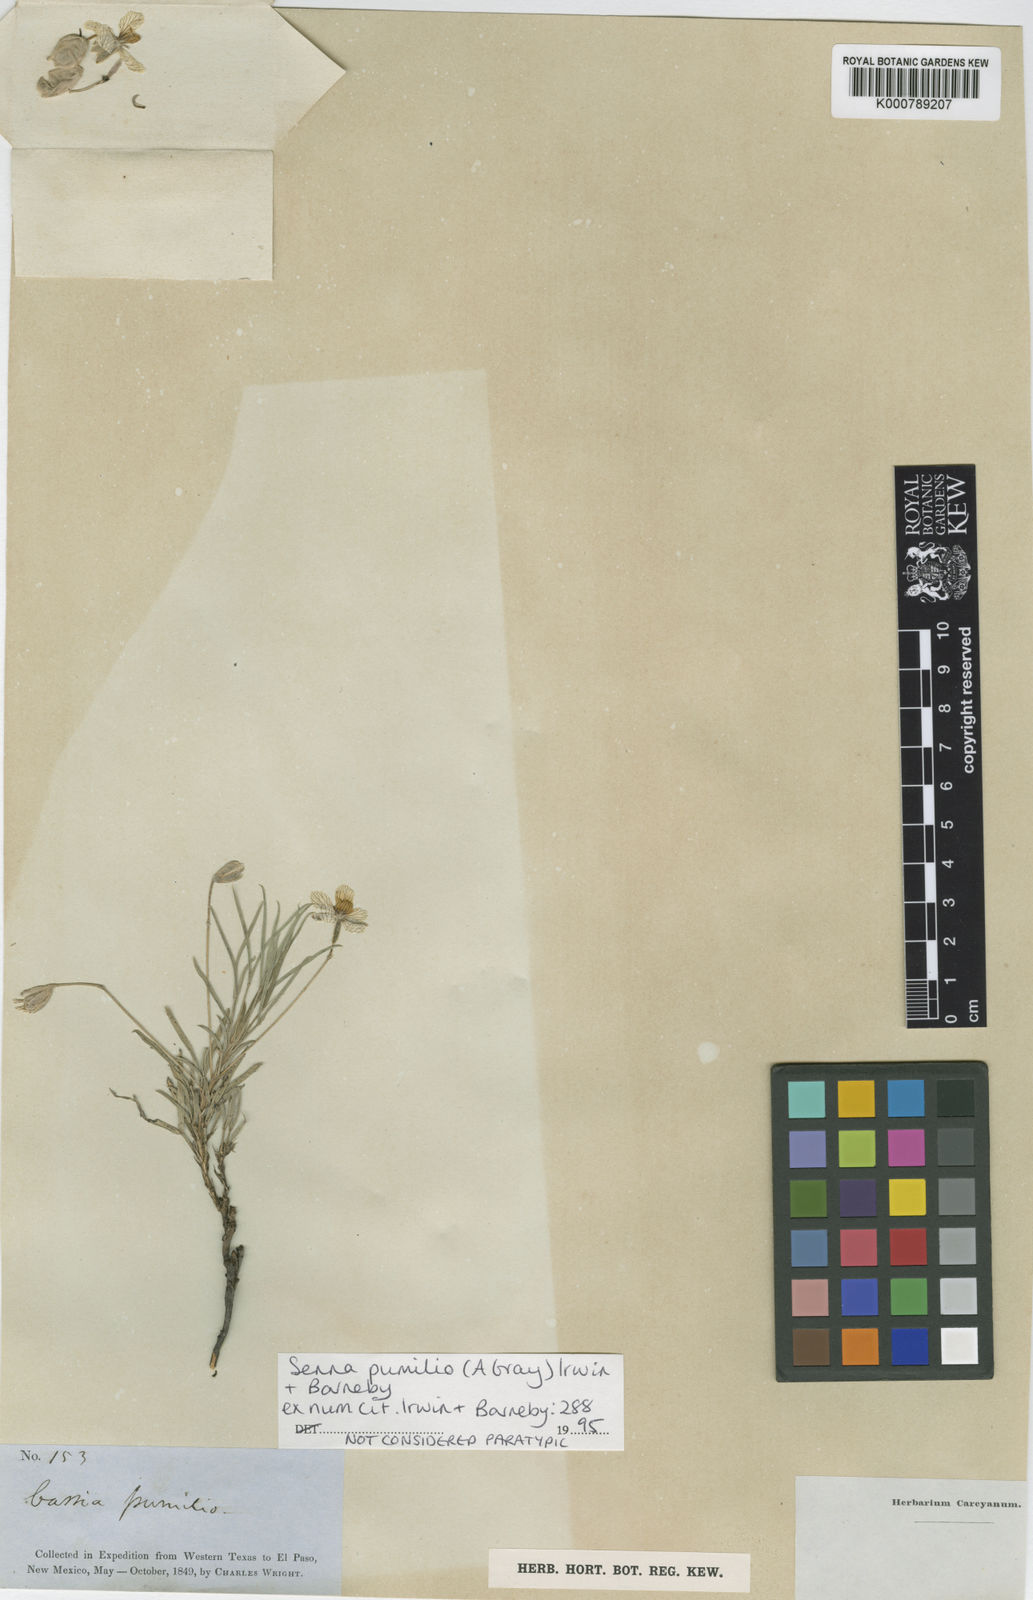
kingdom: Plantae
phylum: Tracheophyta
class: Magnoliopsida
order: Fabales
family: Fabaceae
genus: Senna
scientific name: Senna pumilio
